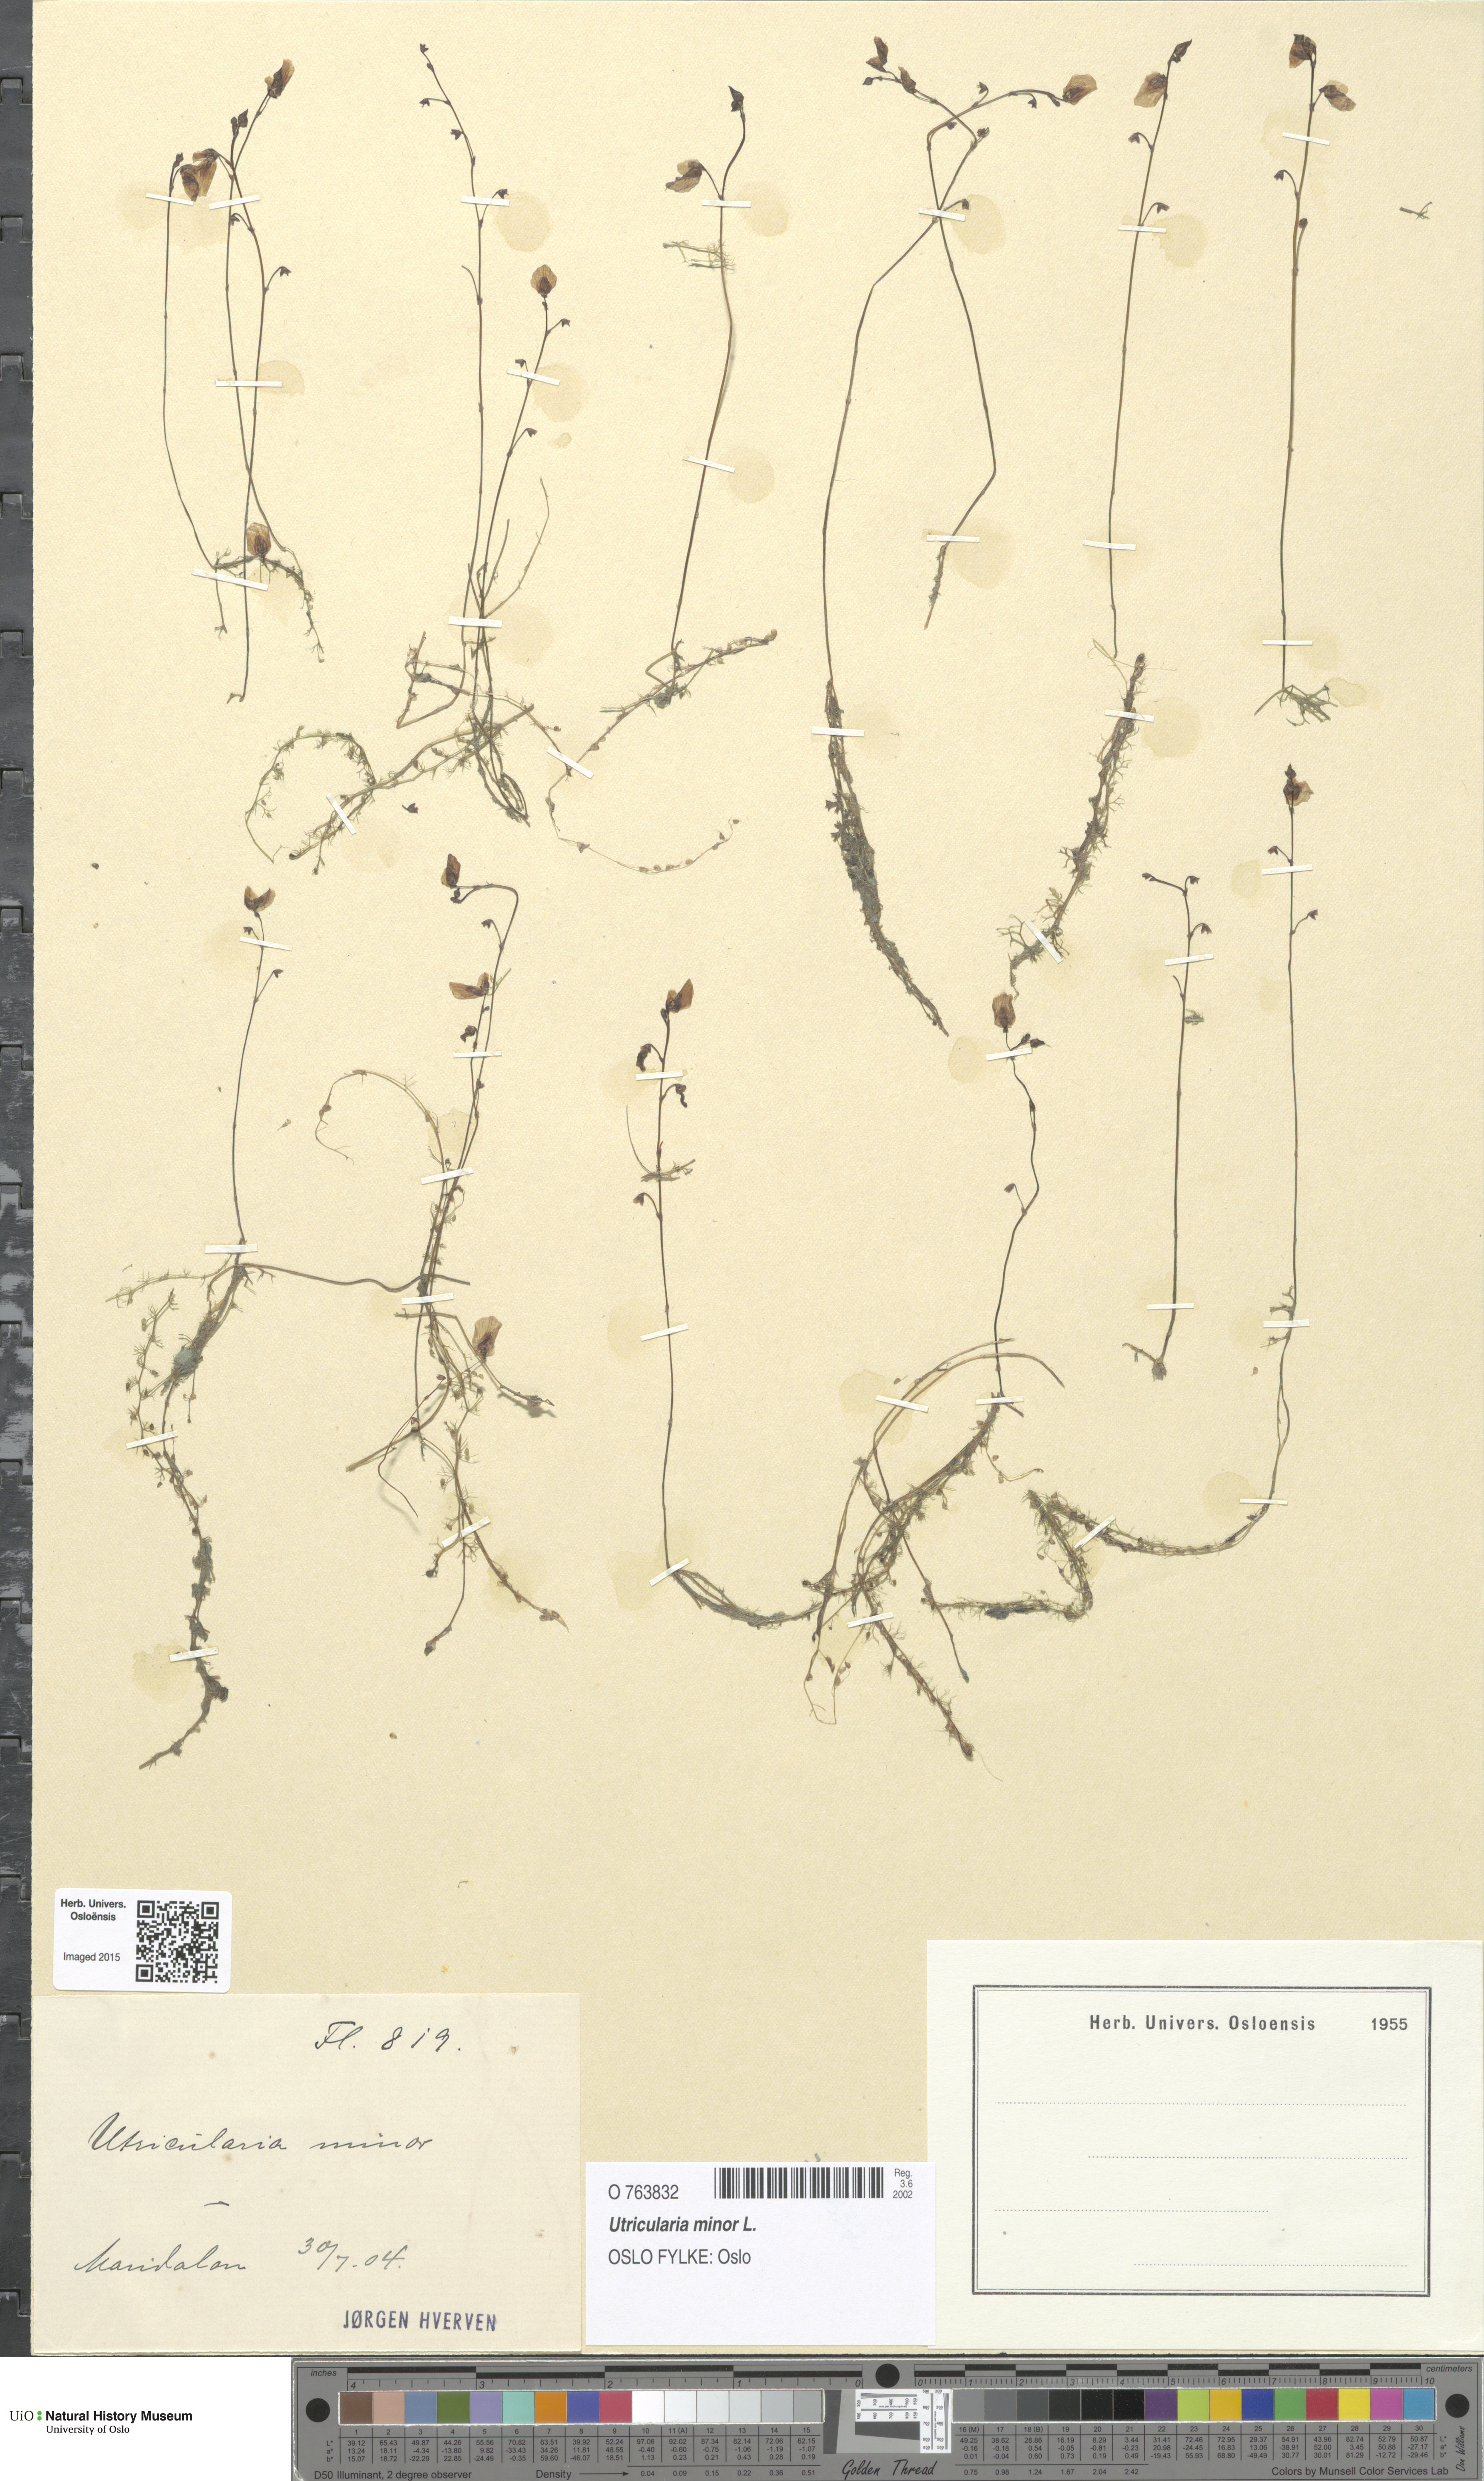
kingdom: Plantae
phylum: Tracheophyta
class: Magnoliopsida
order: Lamiales
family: Lentibulariaceae
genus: Utricularia
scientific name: Utricularia minor
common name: Lesser bladderwort
